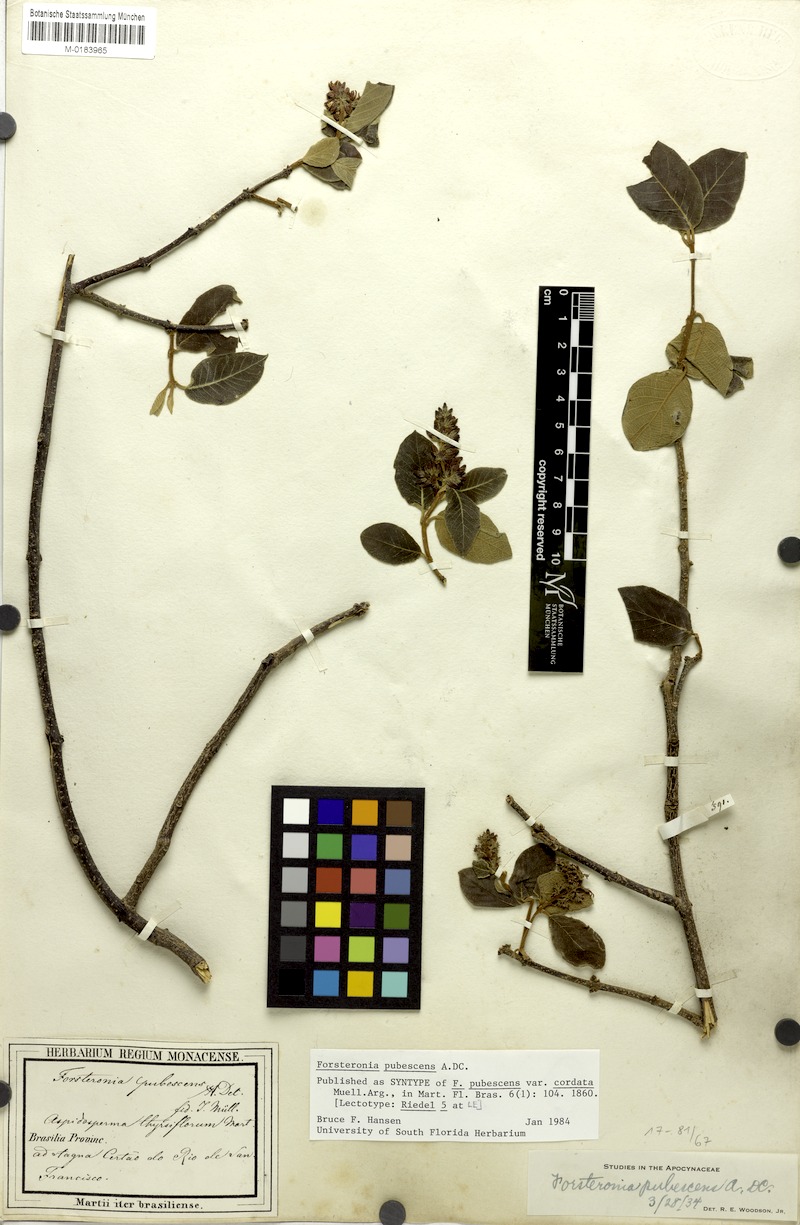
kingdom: Plantae
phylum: Tracheophyta
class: Magnoliopsida
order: Gentianales
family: Apocynaceae
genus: Forsteronia
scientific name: Forsteronia pubescens
